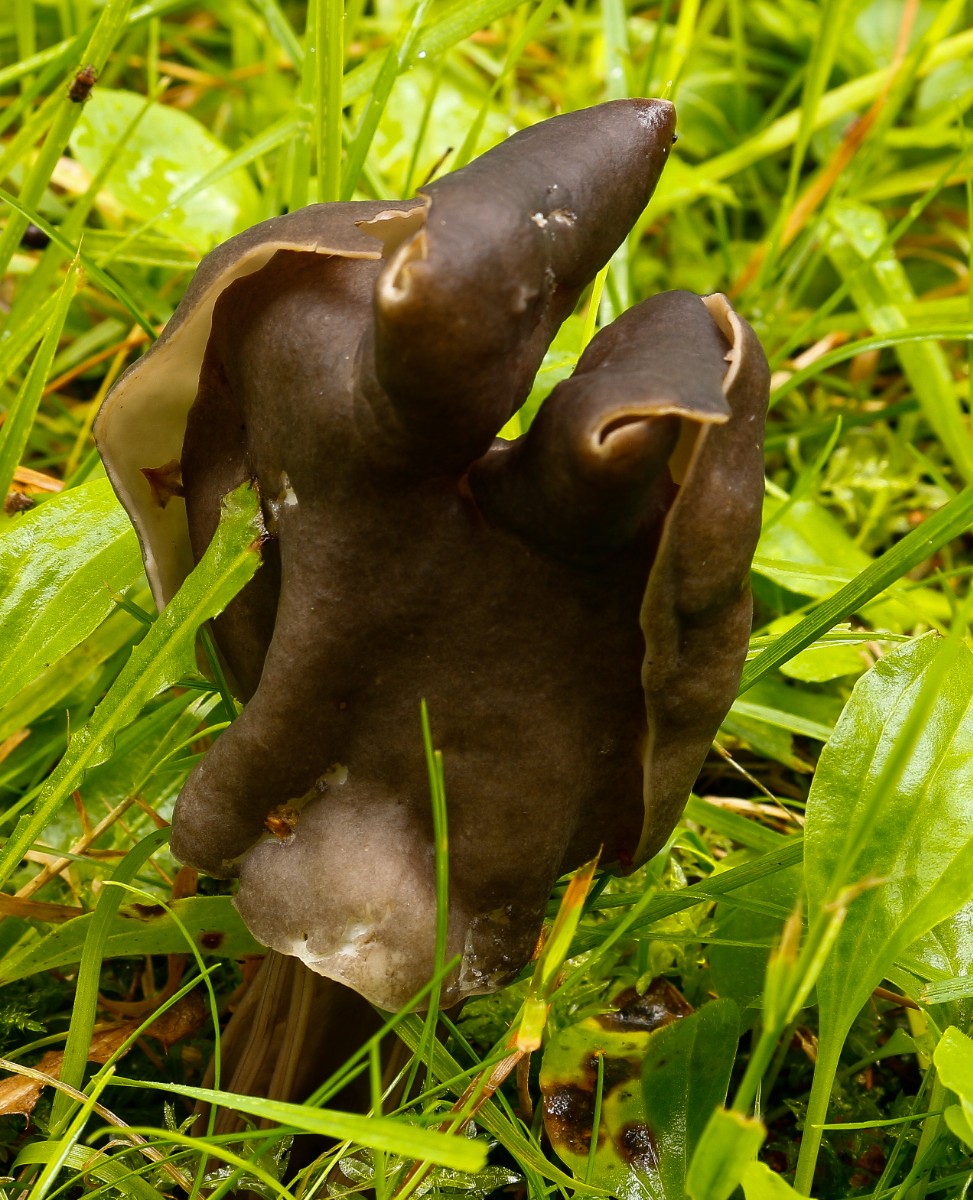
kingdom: Fungi
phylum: Ascomycota
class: Pezizomycetes
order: Pezizales
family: Helvellaceae
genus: Helvella
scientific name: Helvella lacunosa
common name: grubet foldhat
